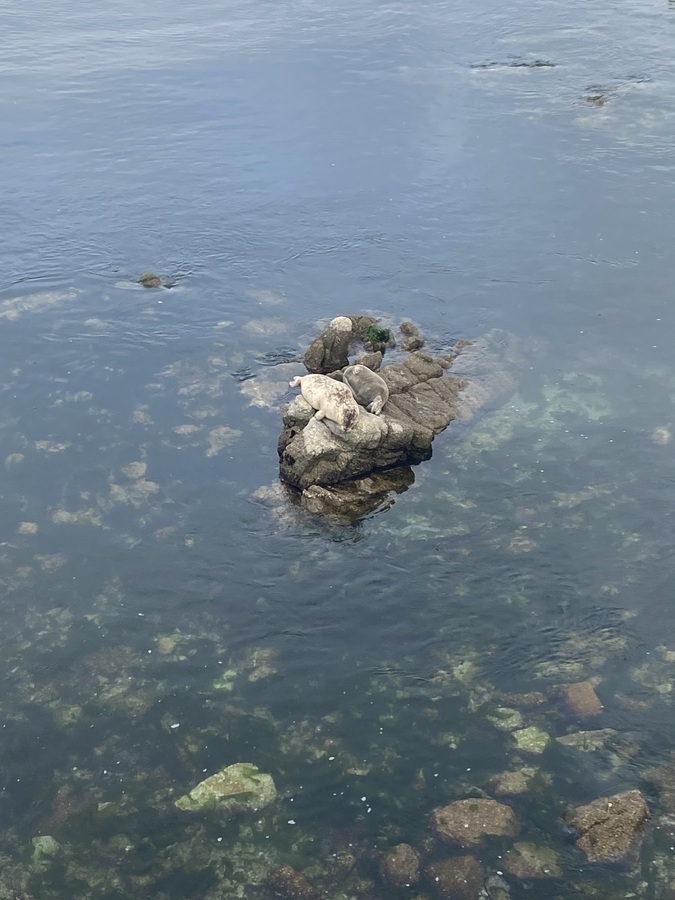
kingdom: Animalia
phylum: Chordata
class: Mammalia
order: Carnivora
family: Phocidae
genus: Phoca
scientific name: Phoca vitulina
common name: Harbor seal
